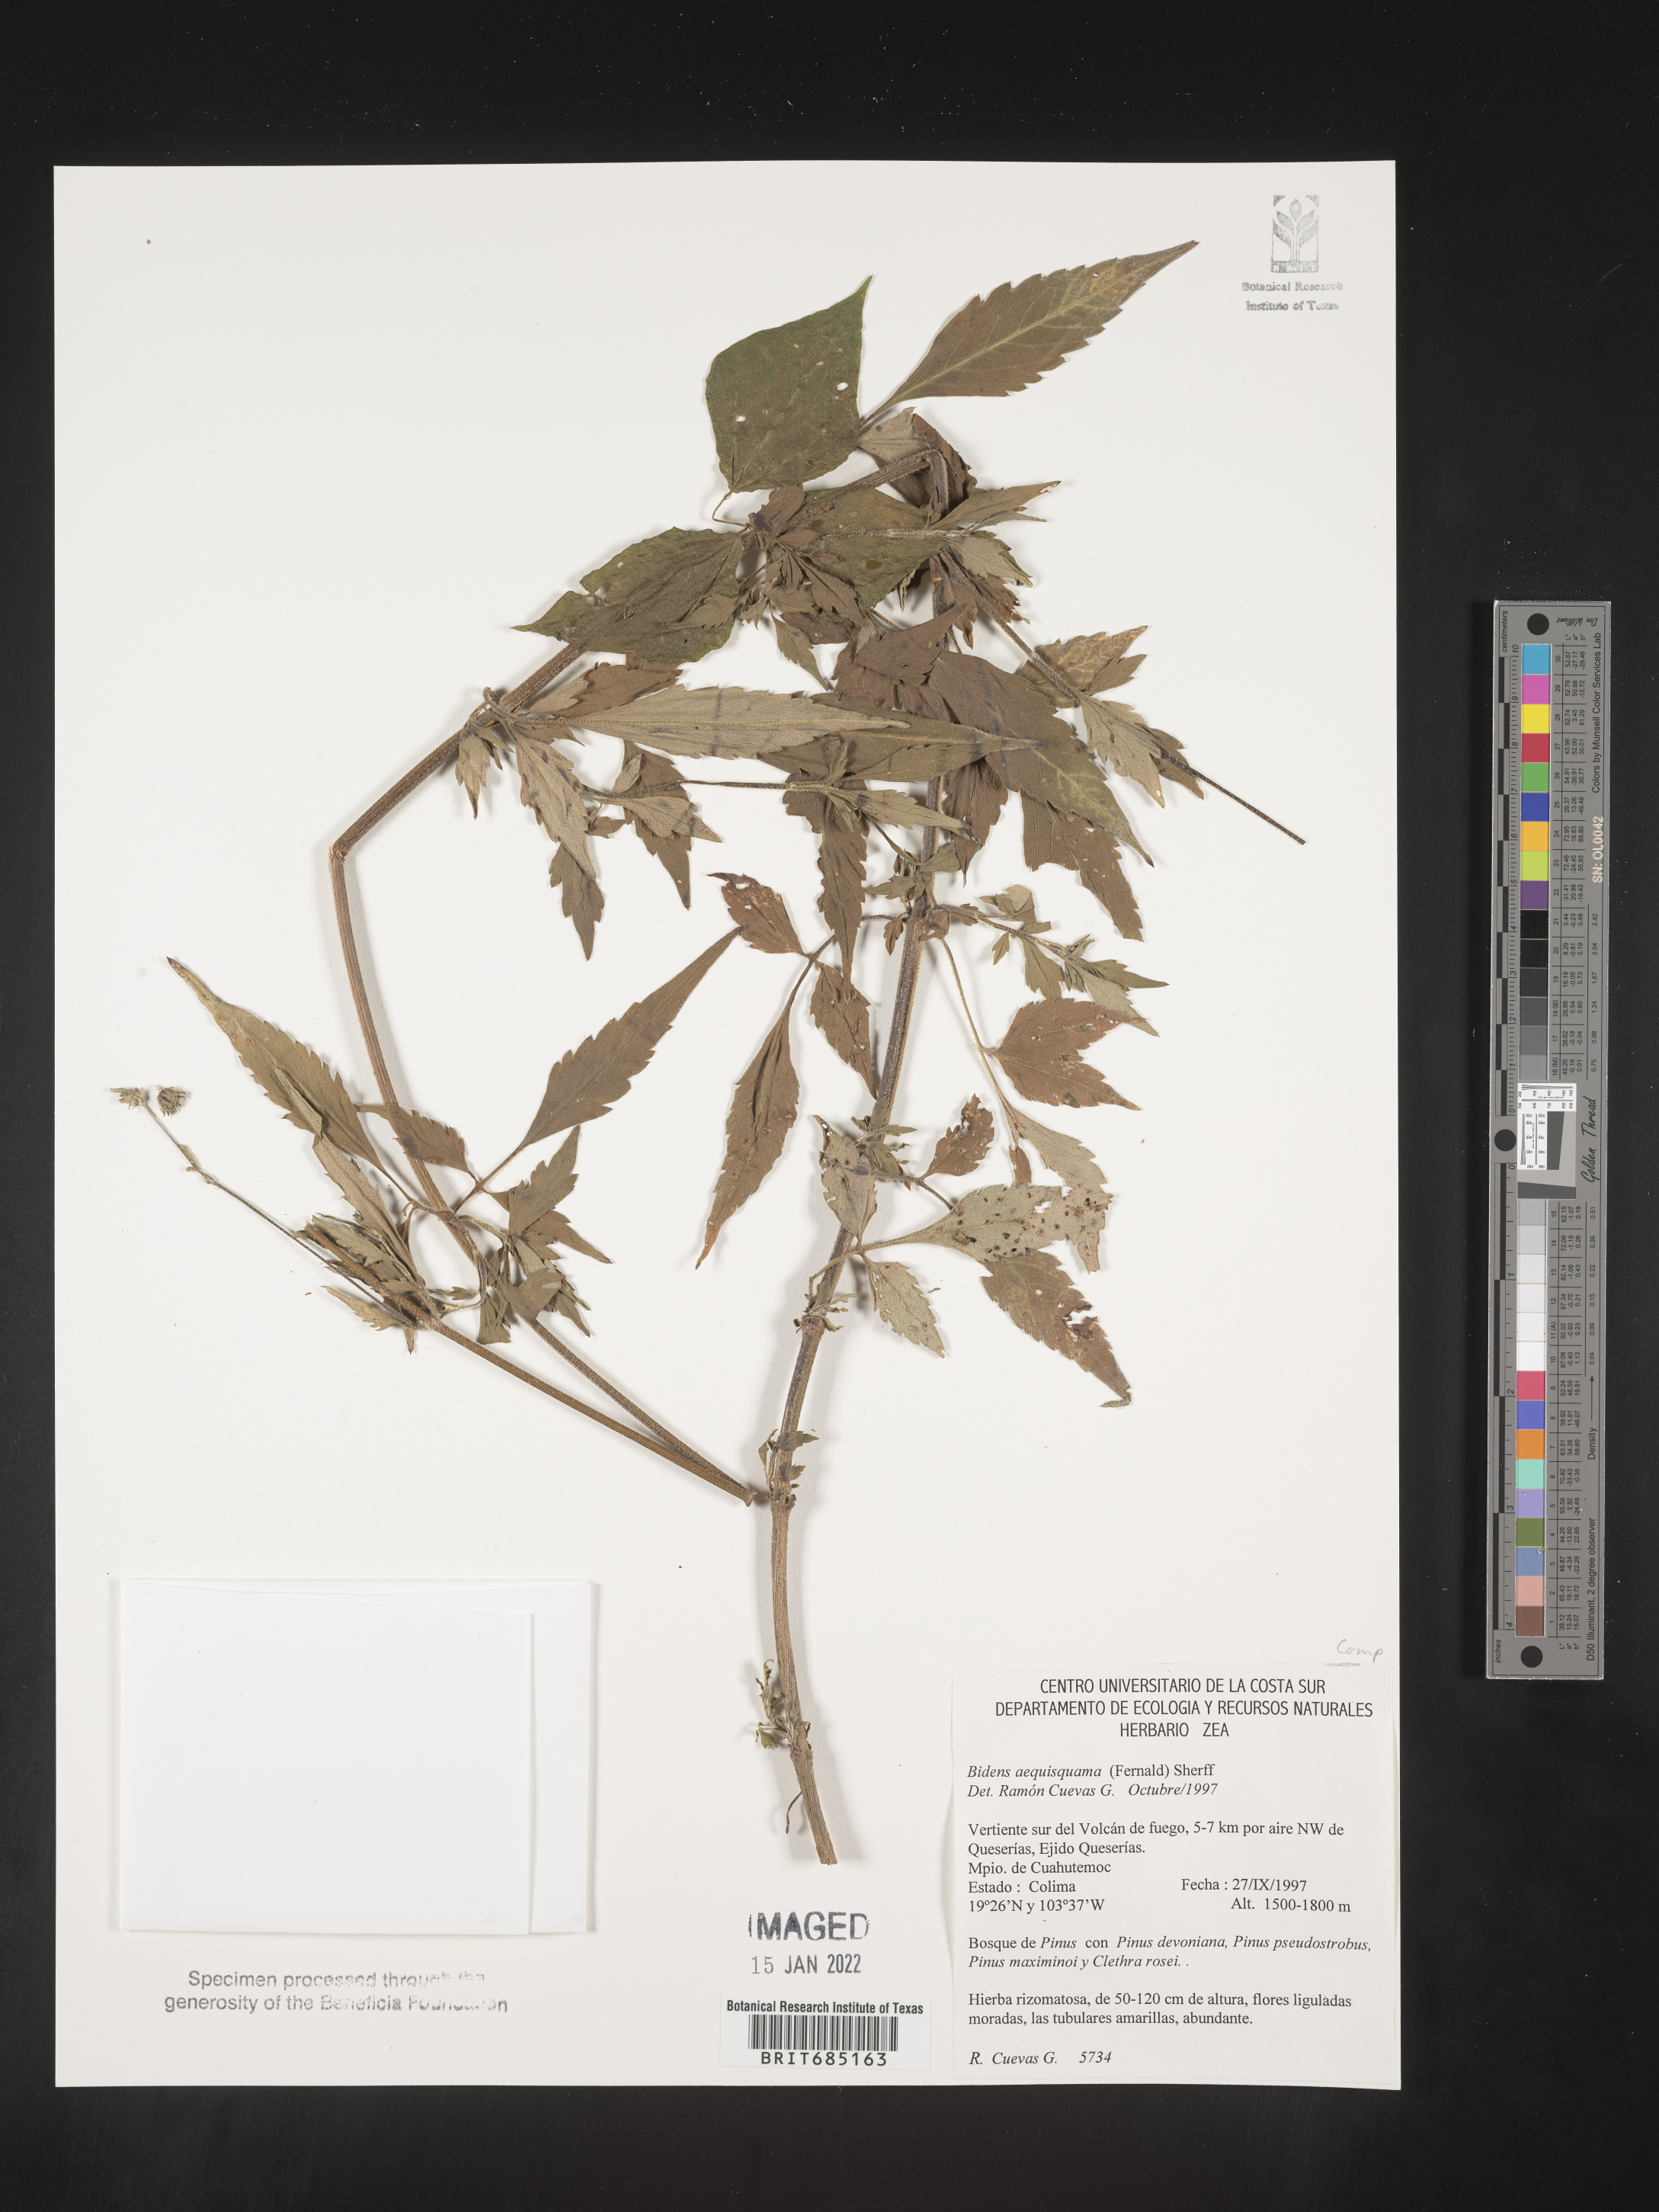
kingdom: Plantae
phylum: Tracheophyta
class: Magnoliopsida
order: Asterales
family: Asteraceae
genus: Bidens
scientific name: Bidens
